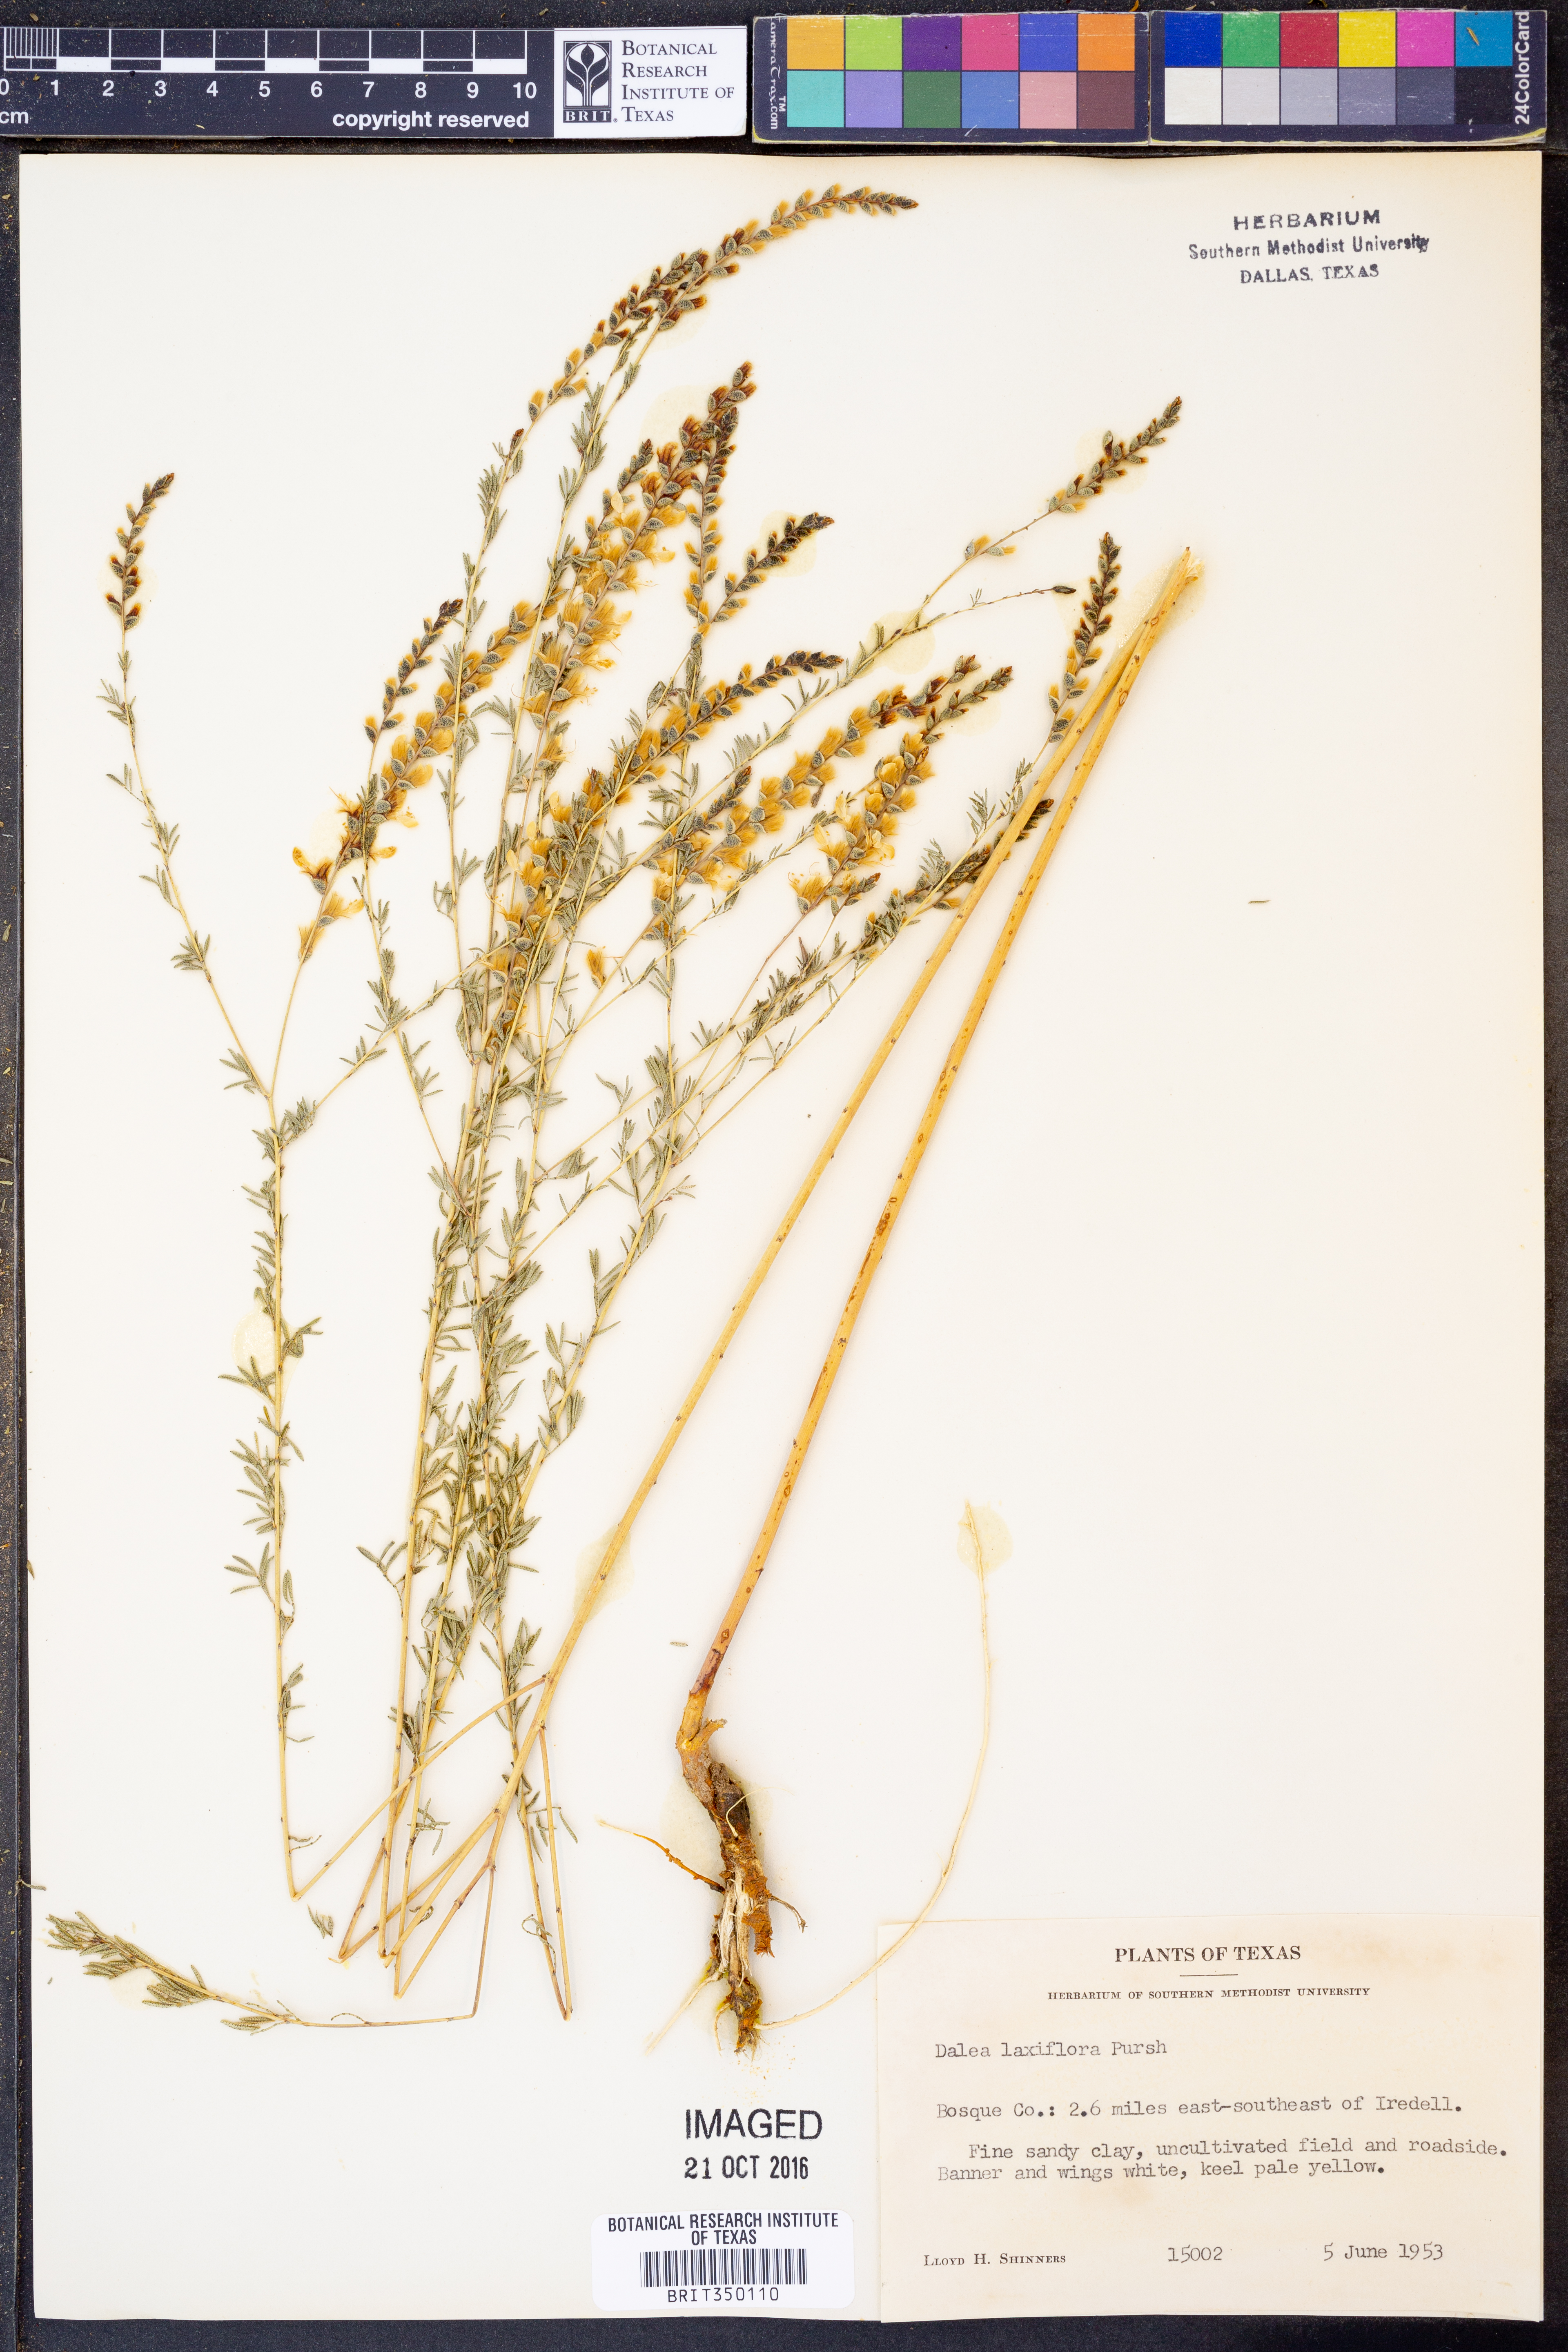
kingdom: Plantae
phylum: Tracheophyta
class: Magnoliopsida
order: Fabales
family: Fabaceae
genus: Dalea
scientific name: Dalea hegewischiana
